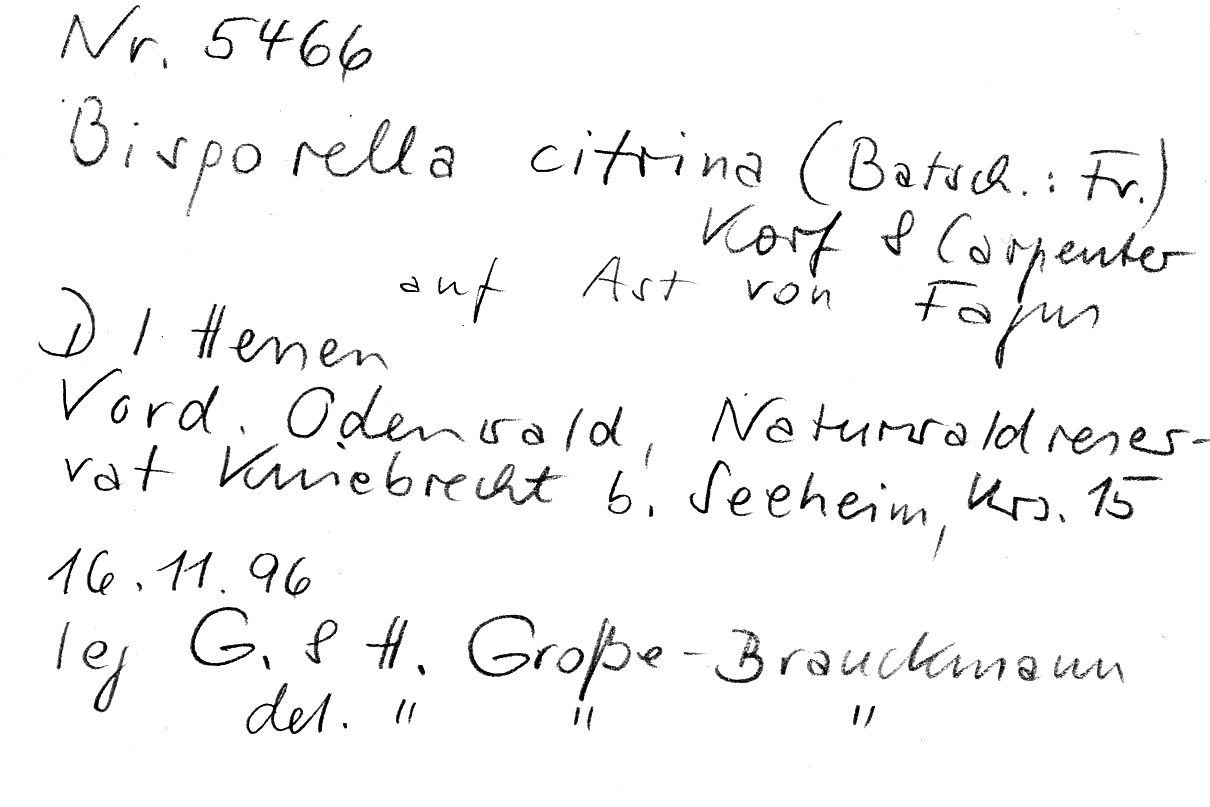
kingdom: Fungi
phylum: Ascomycota
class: Leotiomycetes
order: Helotiales
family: Pezizellaceae
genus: Calycina
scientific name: Calycina citrina
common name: Yellow fairy cups
